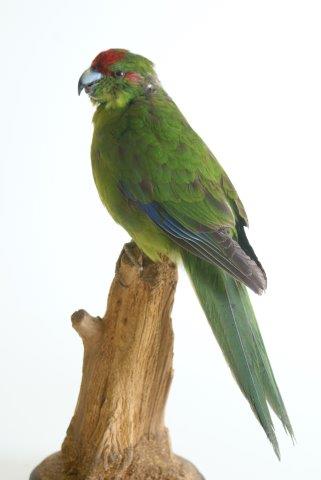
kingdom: Animalia
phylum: Chordata
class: Aves
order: Psittaciformes
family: Psittacidae
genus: Cyanoramphus
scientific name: Cyanoramphus novaezelandiae
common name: Red-fronted parakeet
